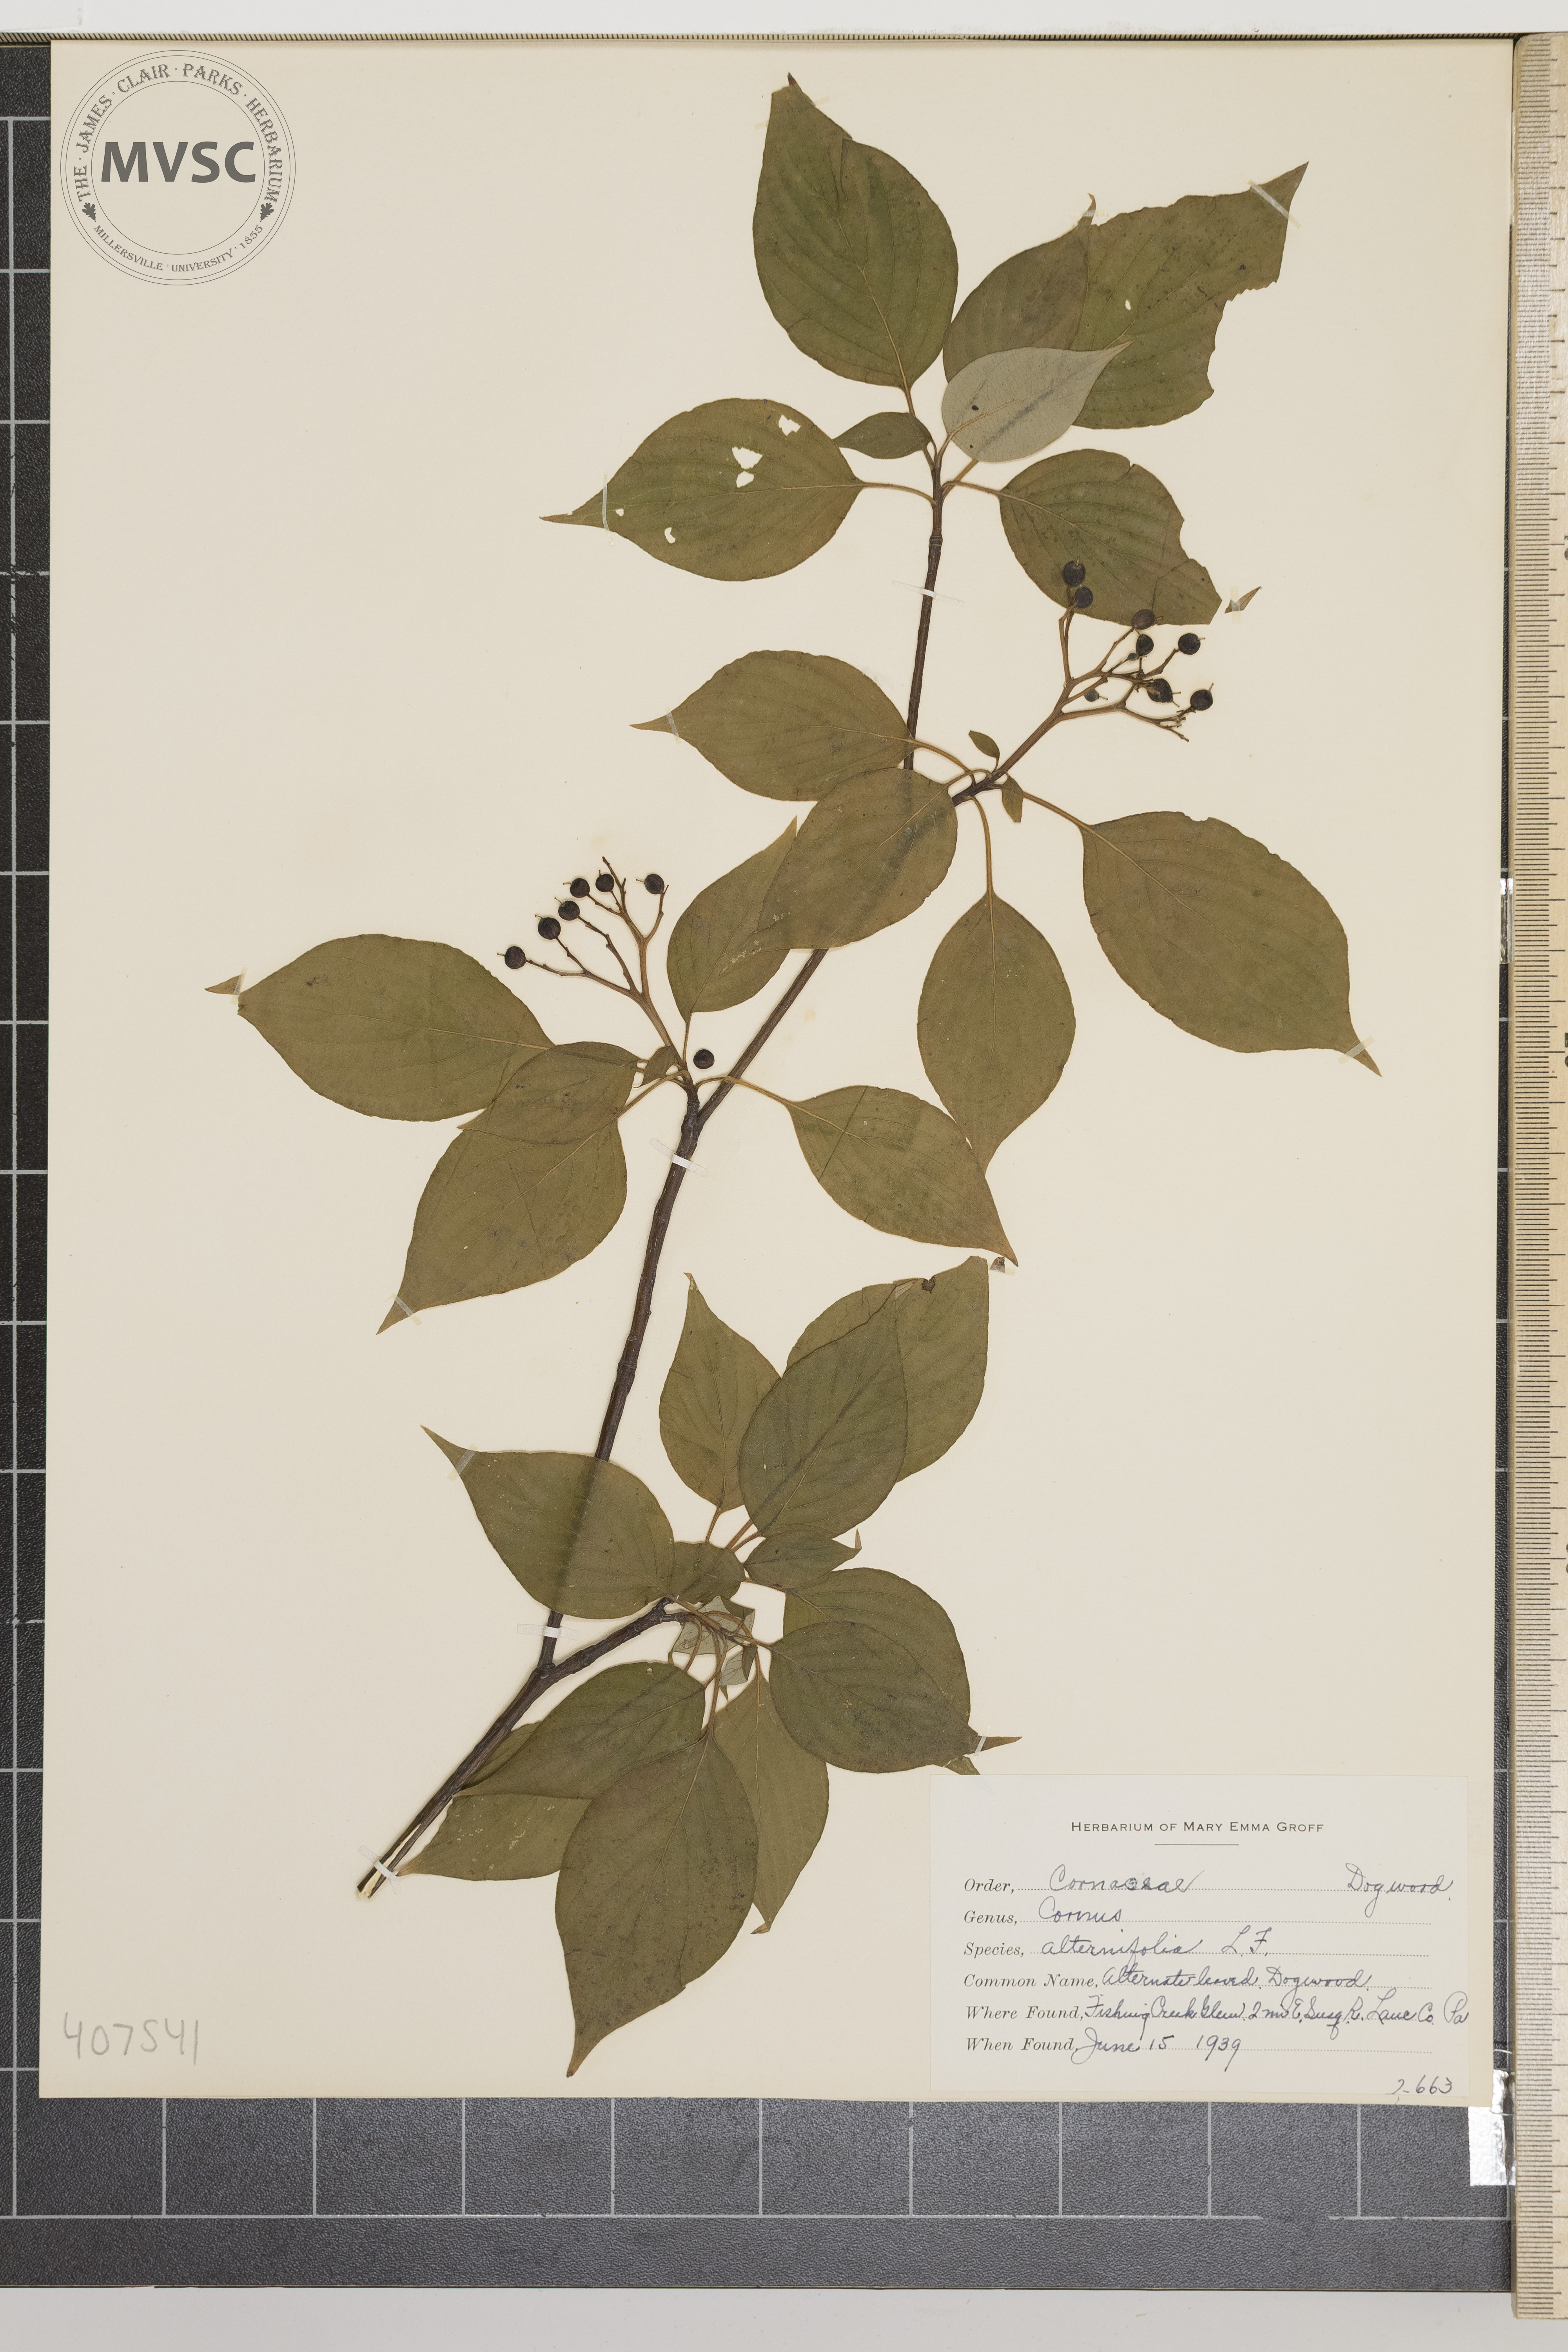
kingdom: Plantae
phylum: Tracheophyta
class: Magnoliopsida
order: Cornales
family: Cornaceae
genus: Cornus
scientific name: Cornus alternifolia
